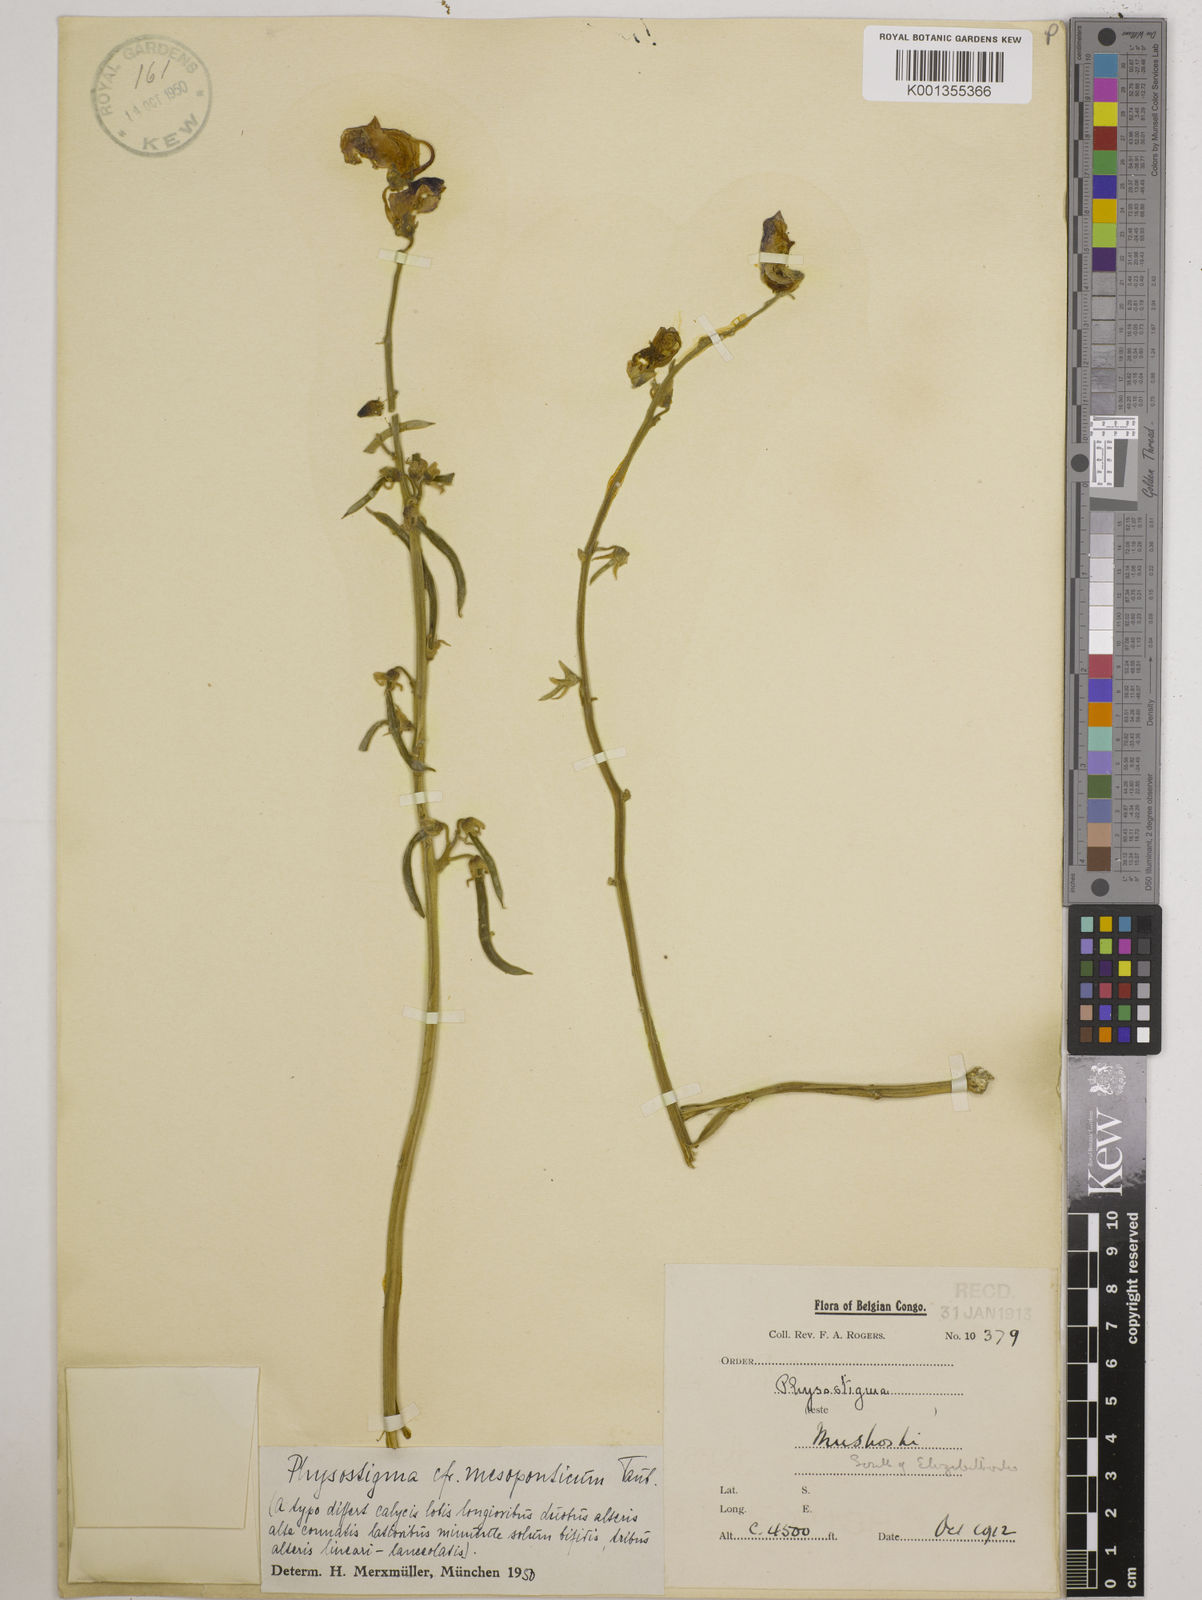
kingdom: Plantae
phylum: Tracheophyta
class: Magnoliopsida
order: Fabales
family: Fabaceae
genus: Physostigma
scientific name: Physostigma mesoponticum
